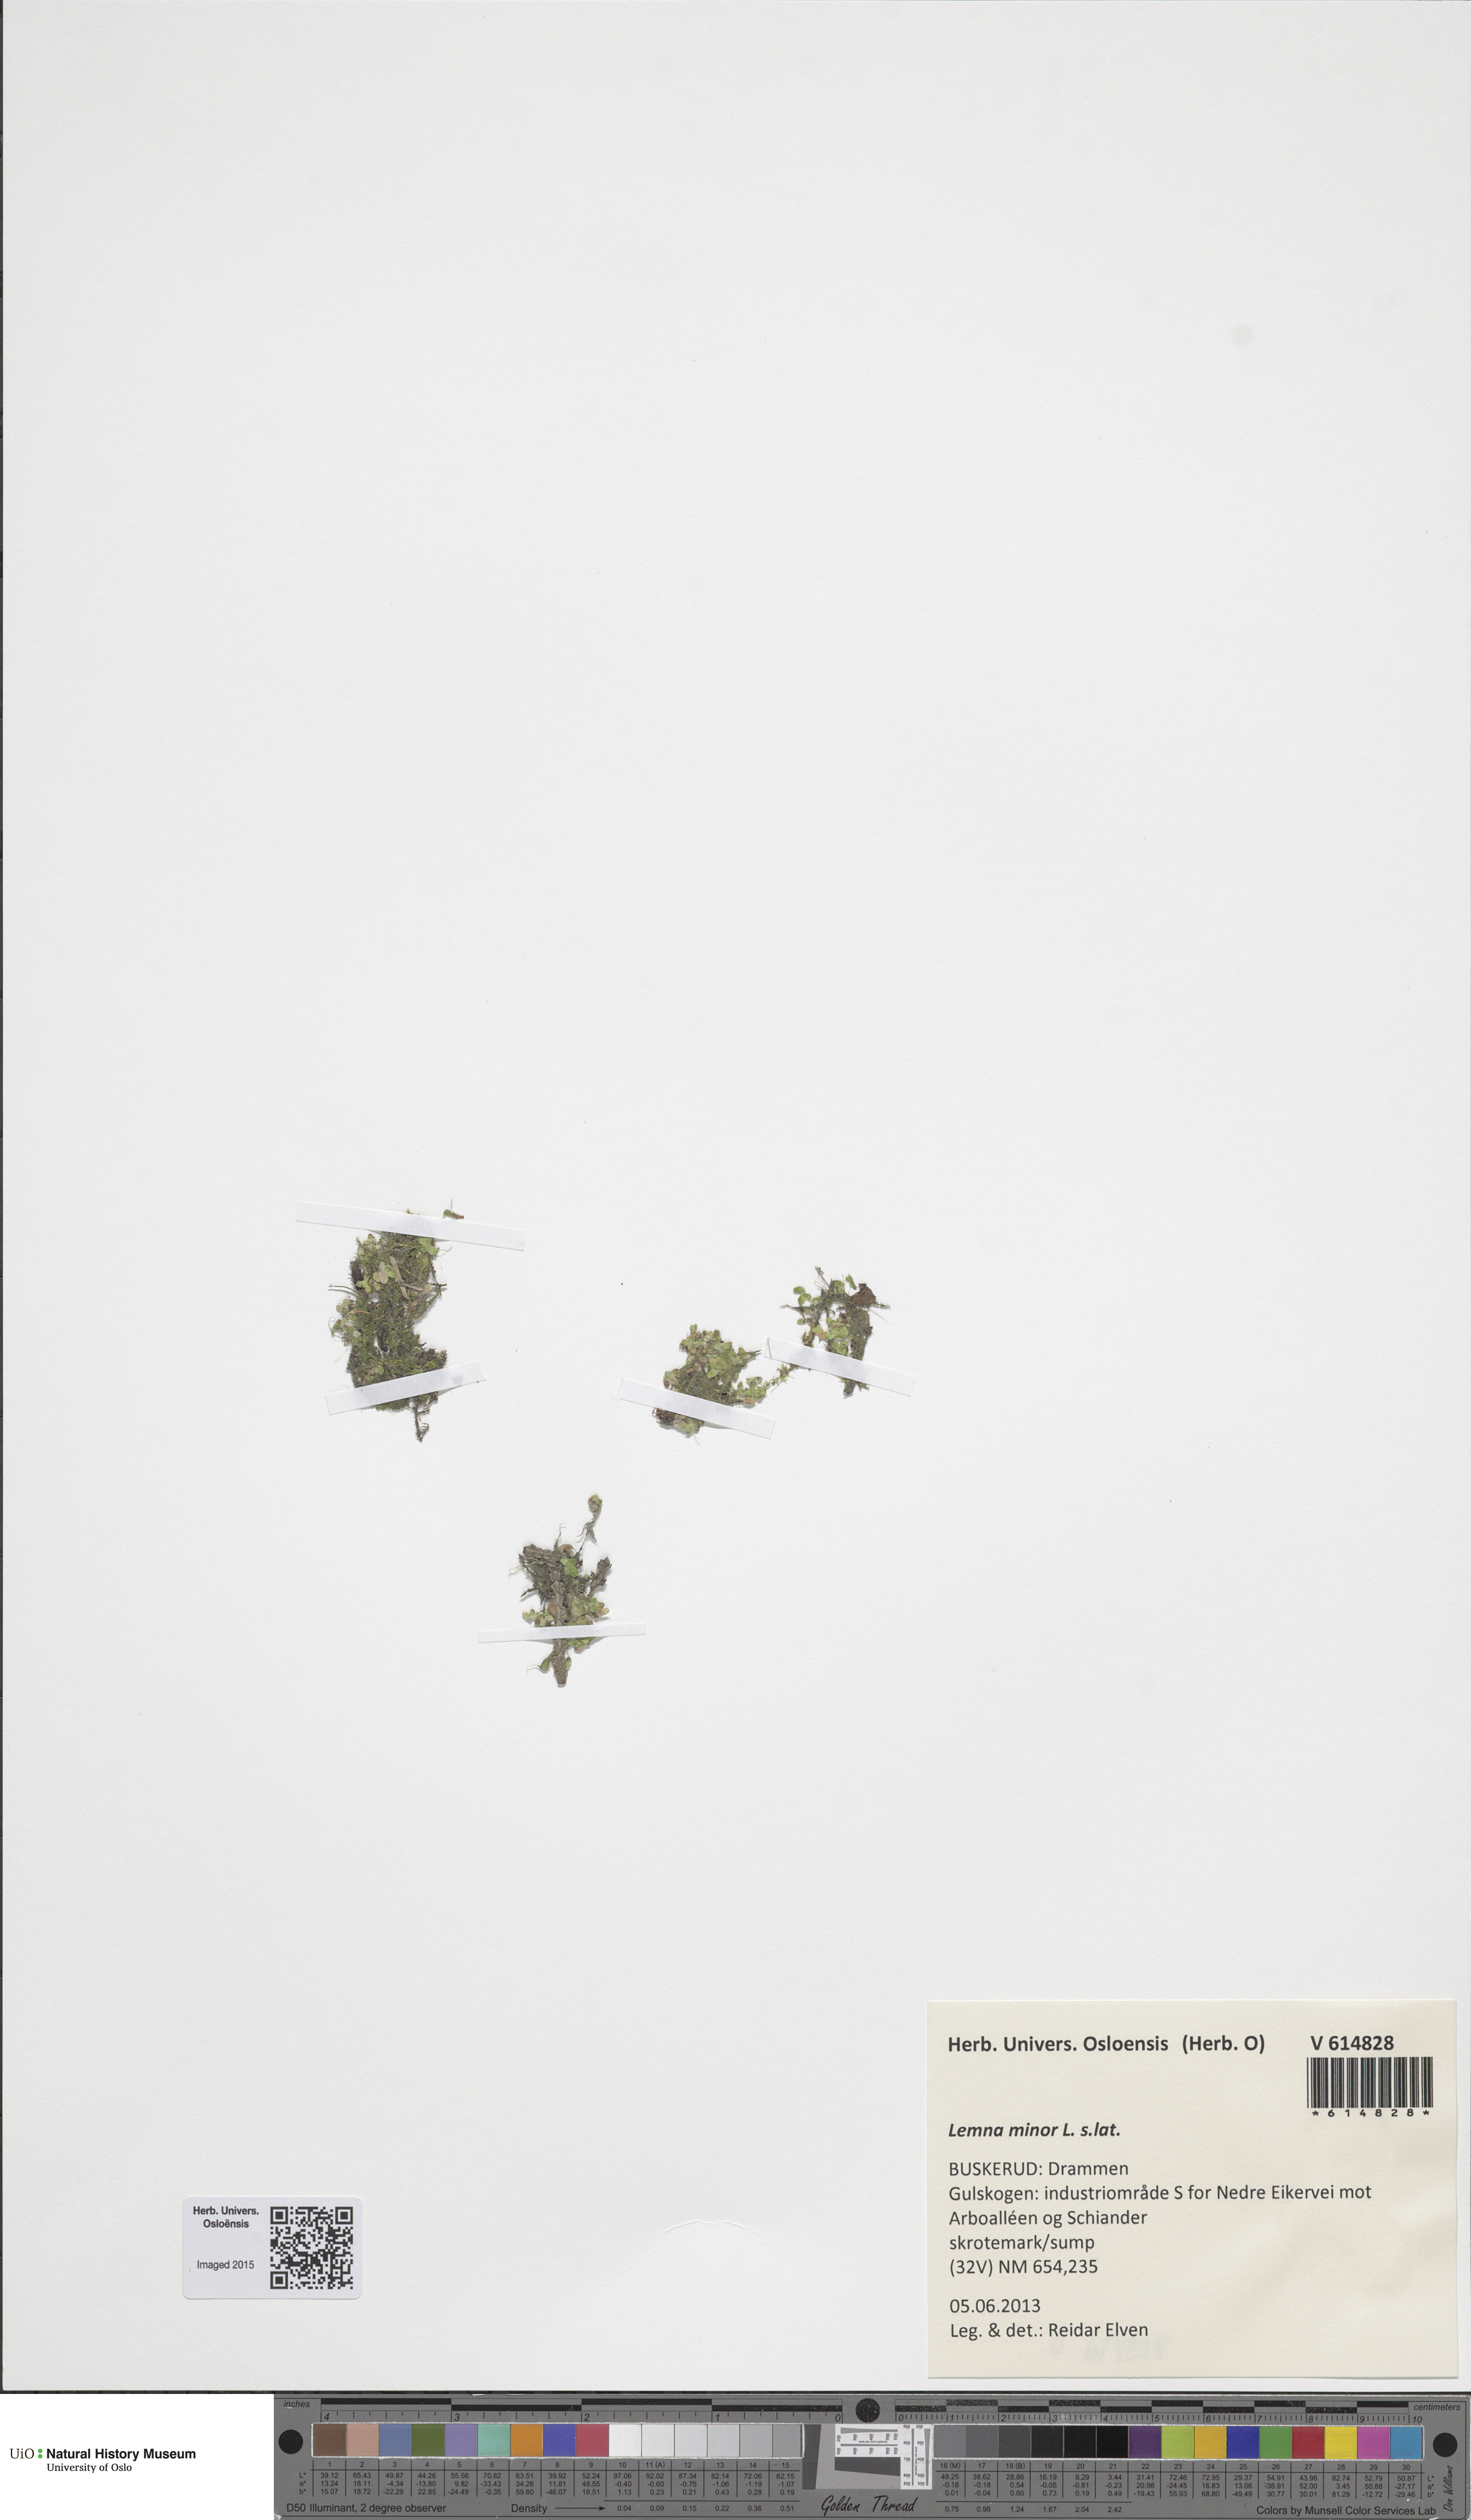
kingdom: Plantae
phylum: Tracheophyta
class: Liliopsida
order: Alismatales
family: Araceae
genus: Lemna
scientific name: Lemna minor
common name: Common duckweed
